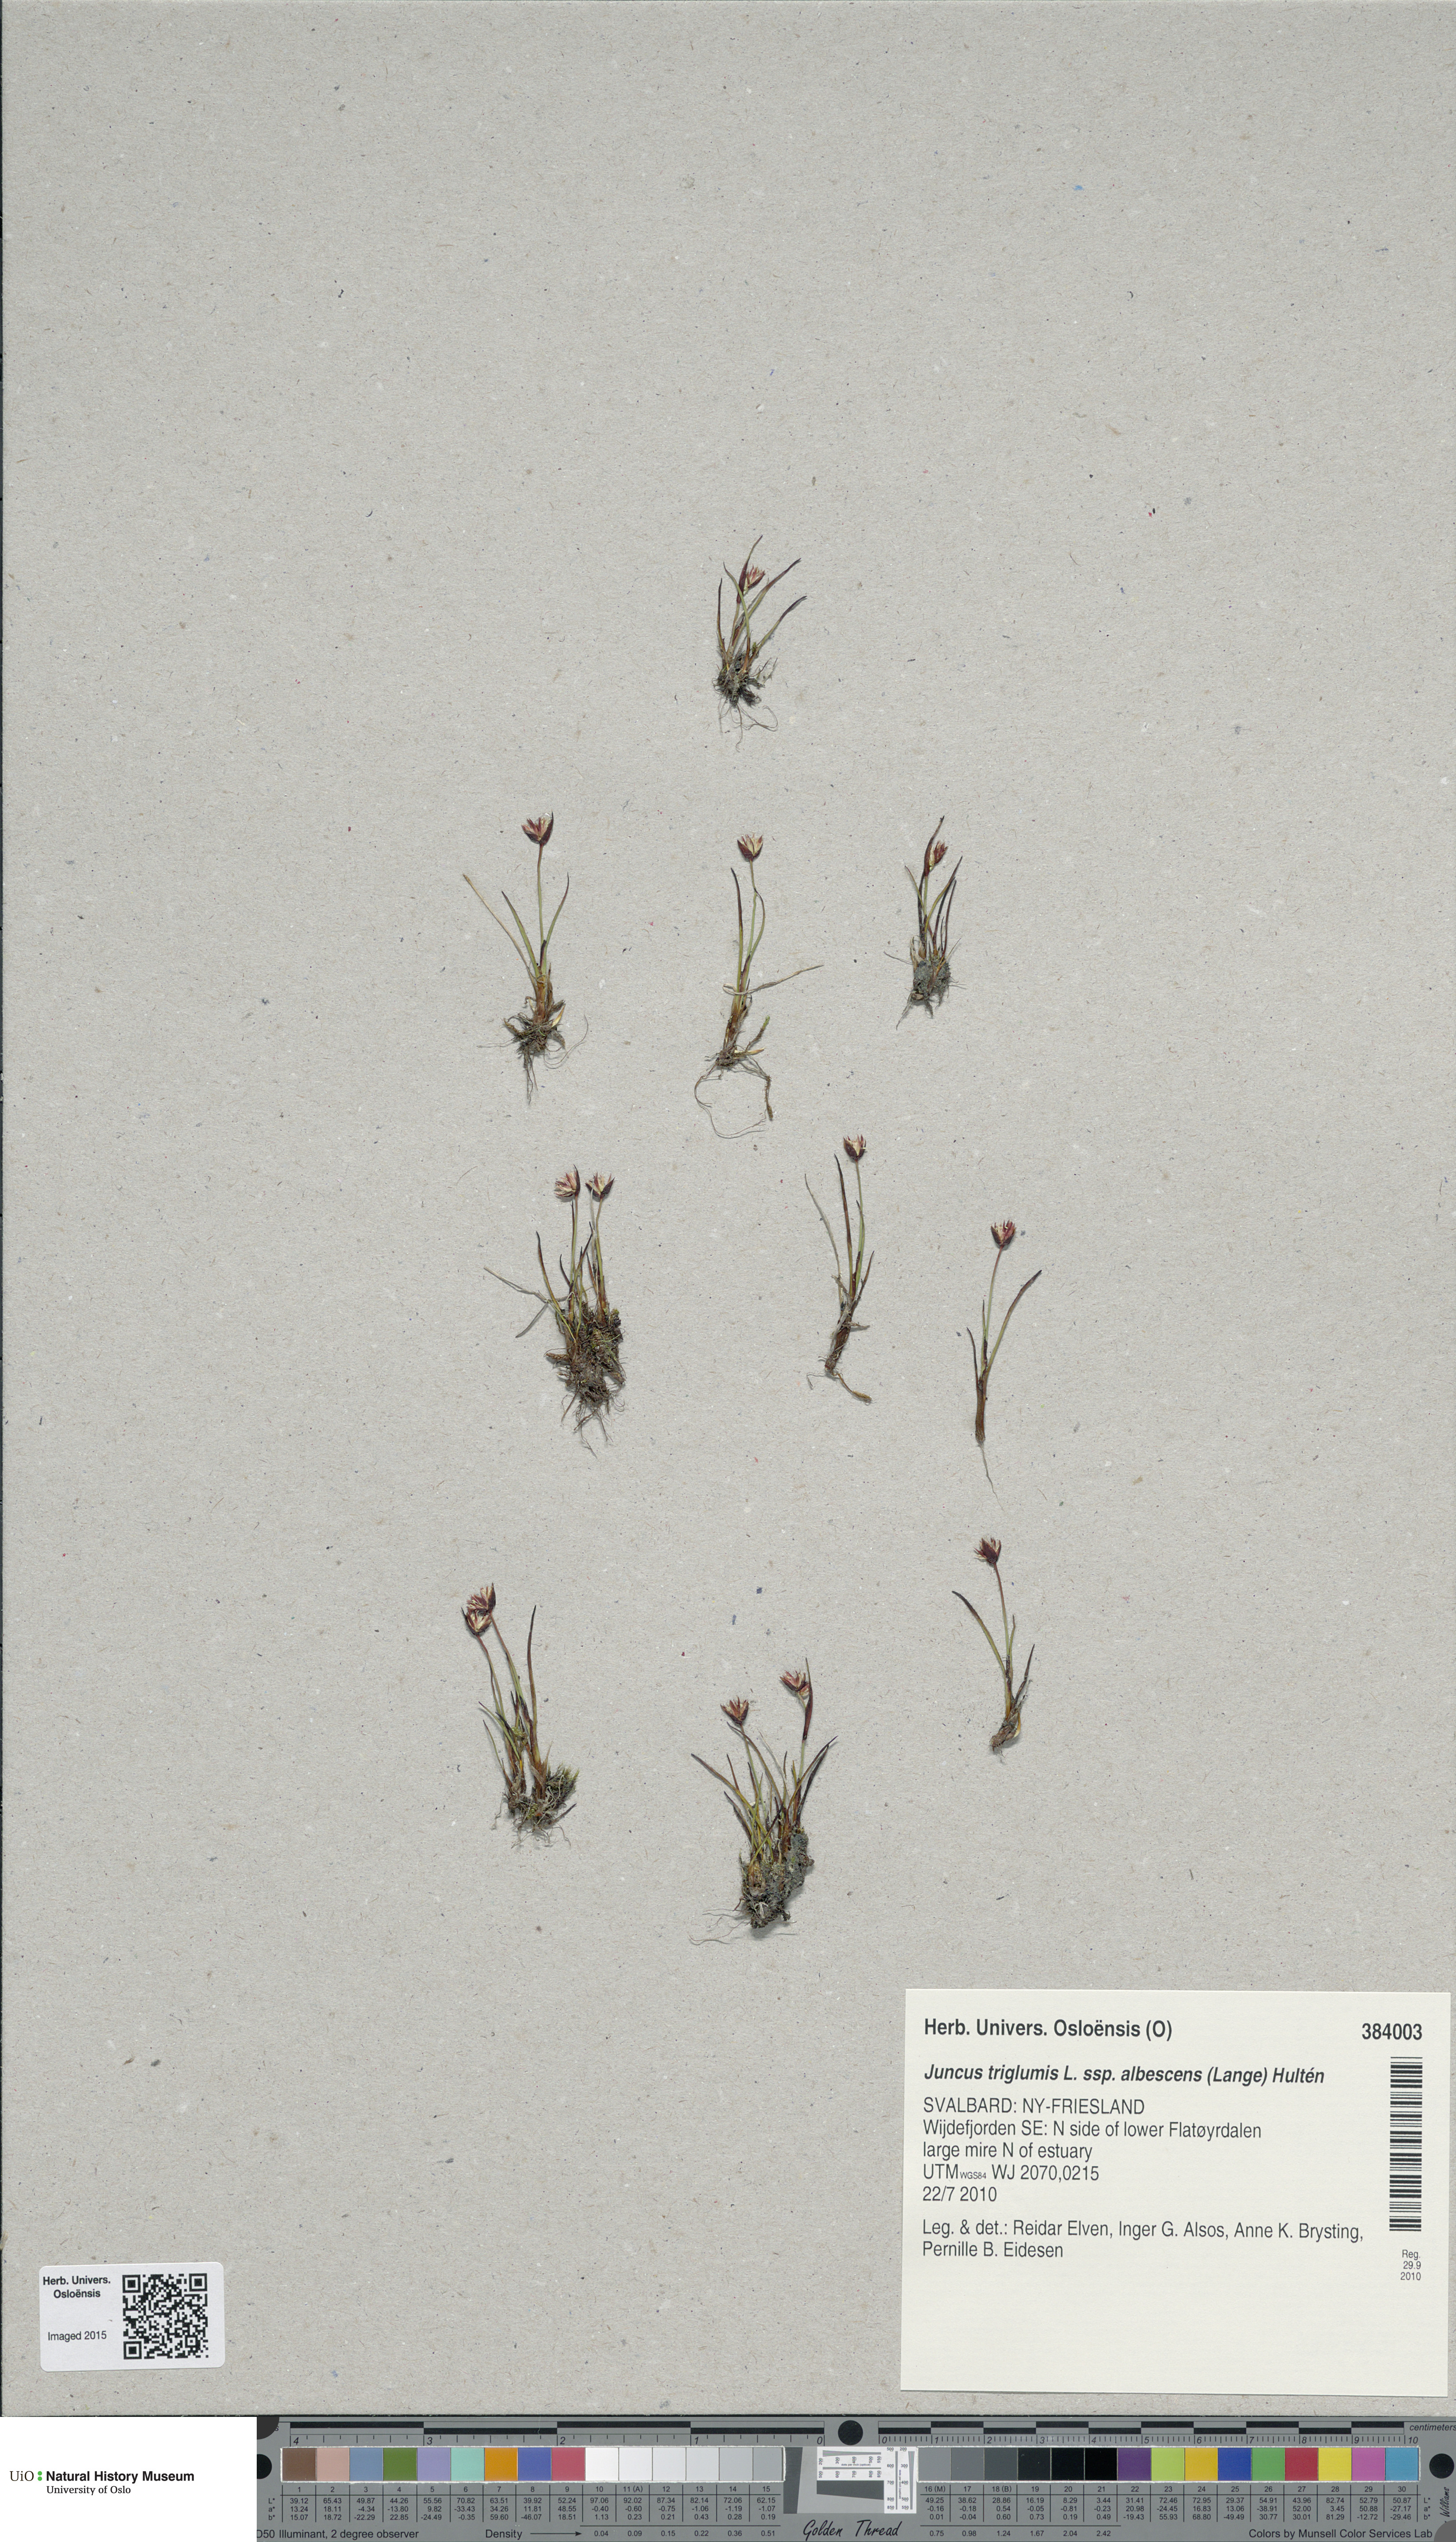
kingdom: Plantae
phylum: Tracheophyta
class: Liliopsida
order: Poales
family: Juncaceae
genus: Juncus
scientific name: Juncus albescens
